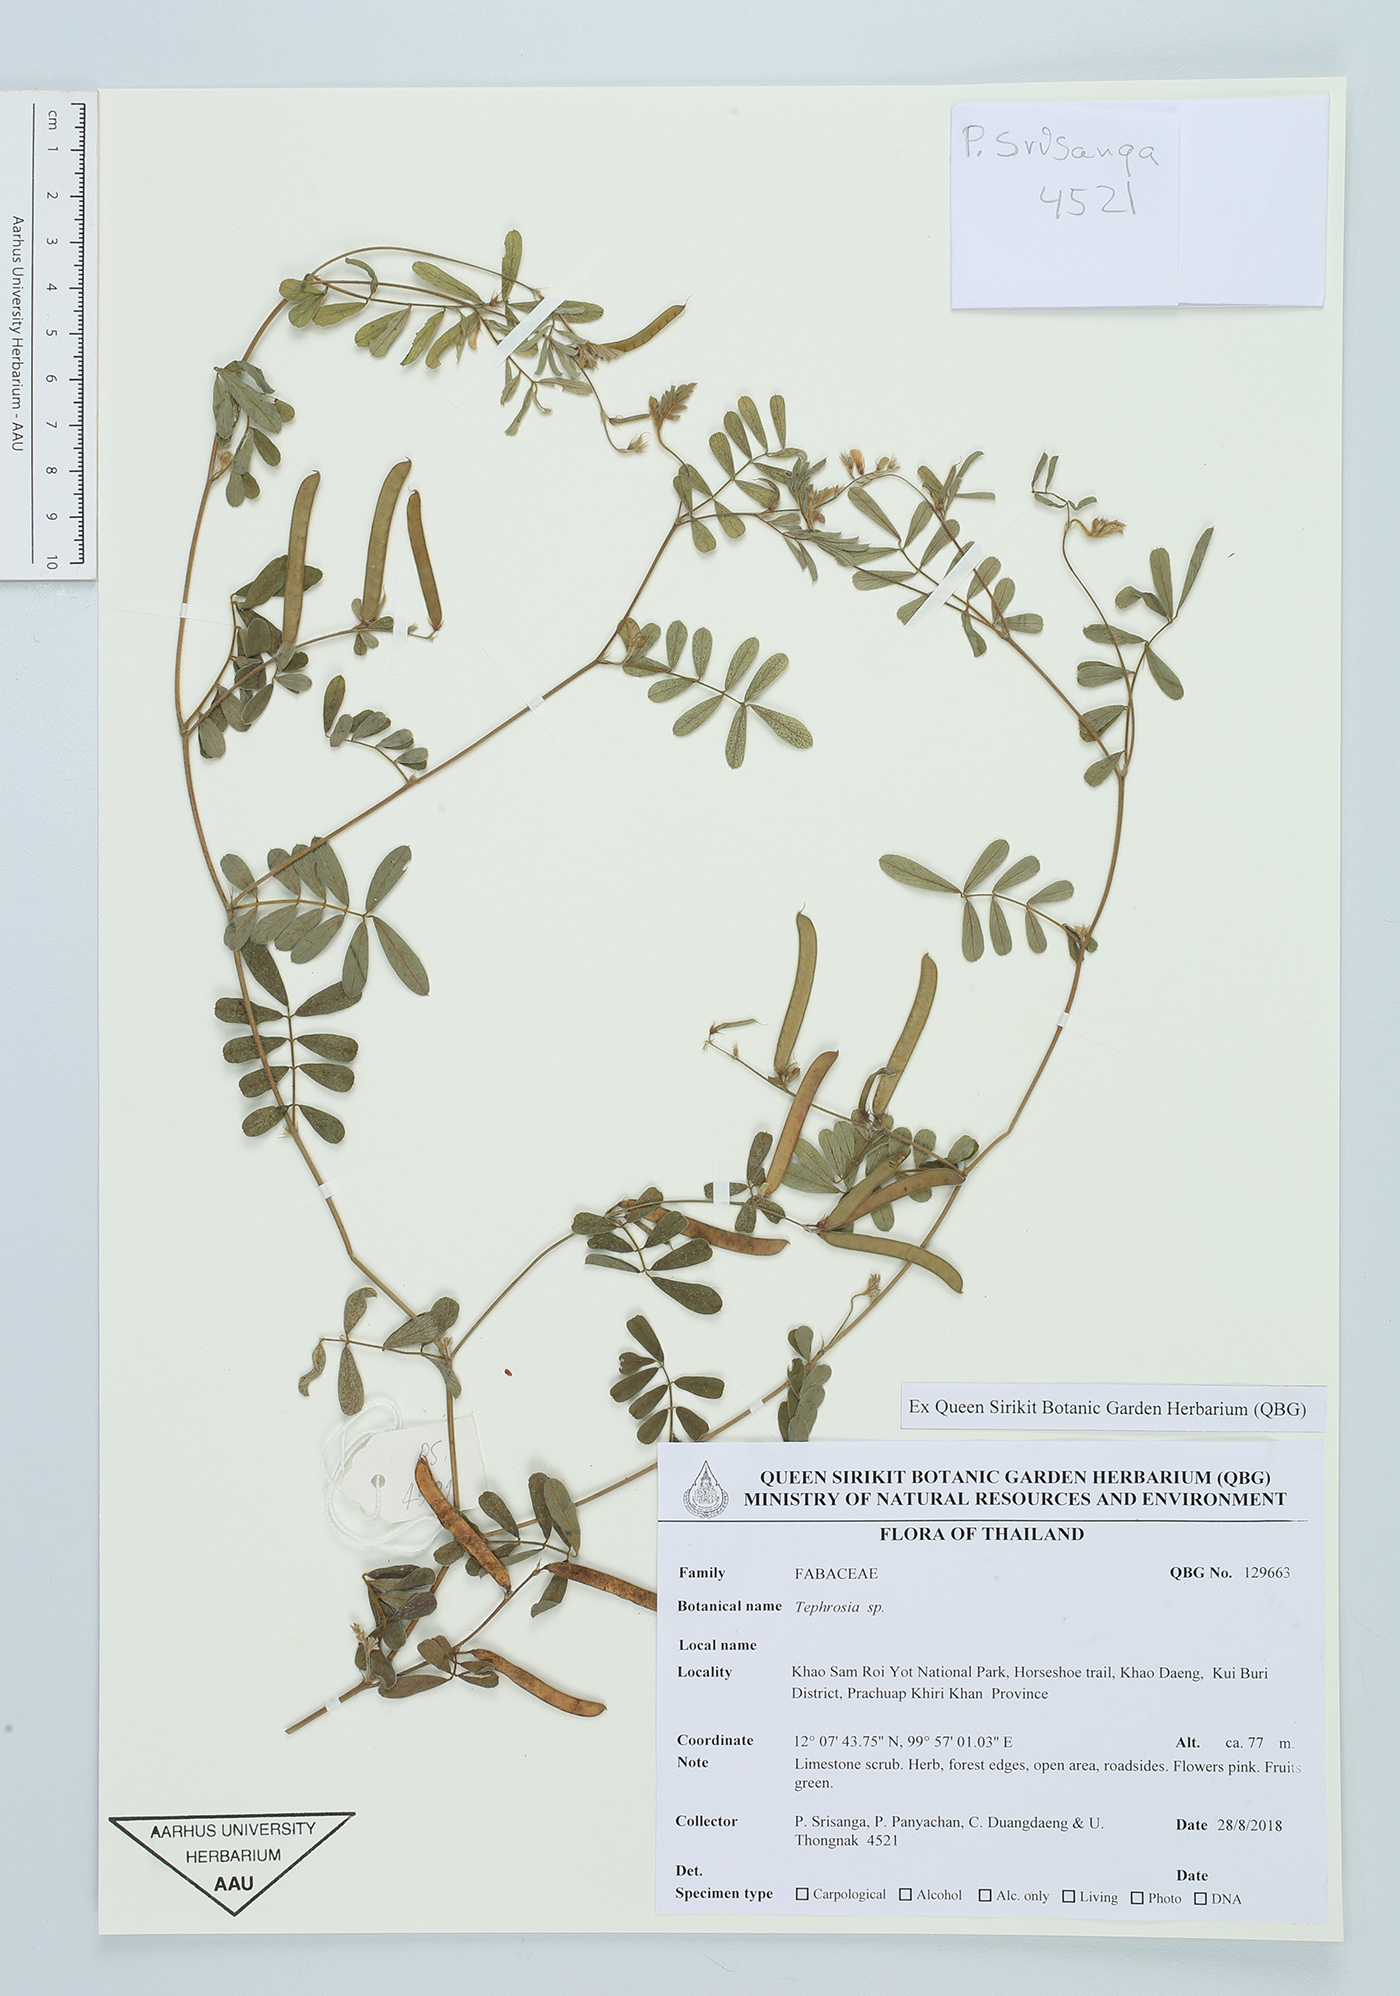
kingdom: Plantae
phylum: Tracheophyta
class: Magnoliopsida
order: Fabales
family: Fabaceae
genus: Tephrosia
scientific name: Tephrosia
